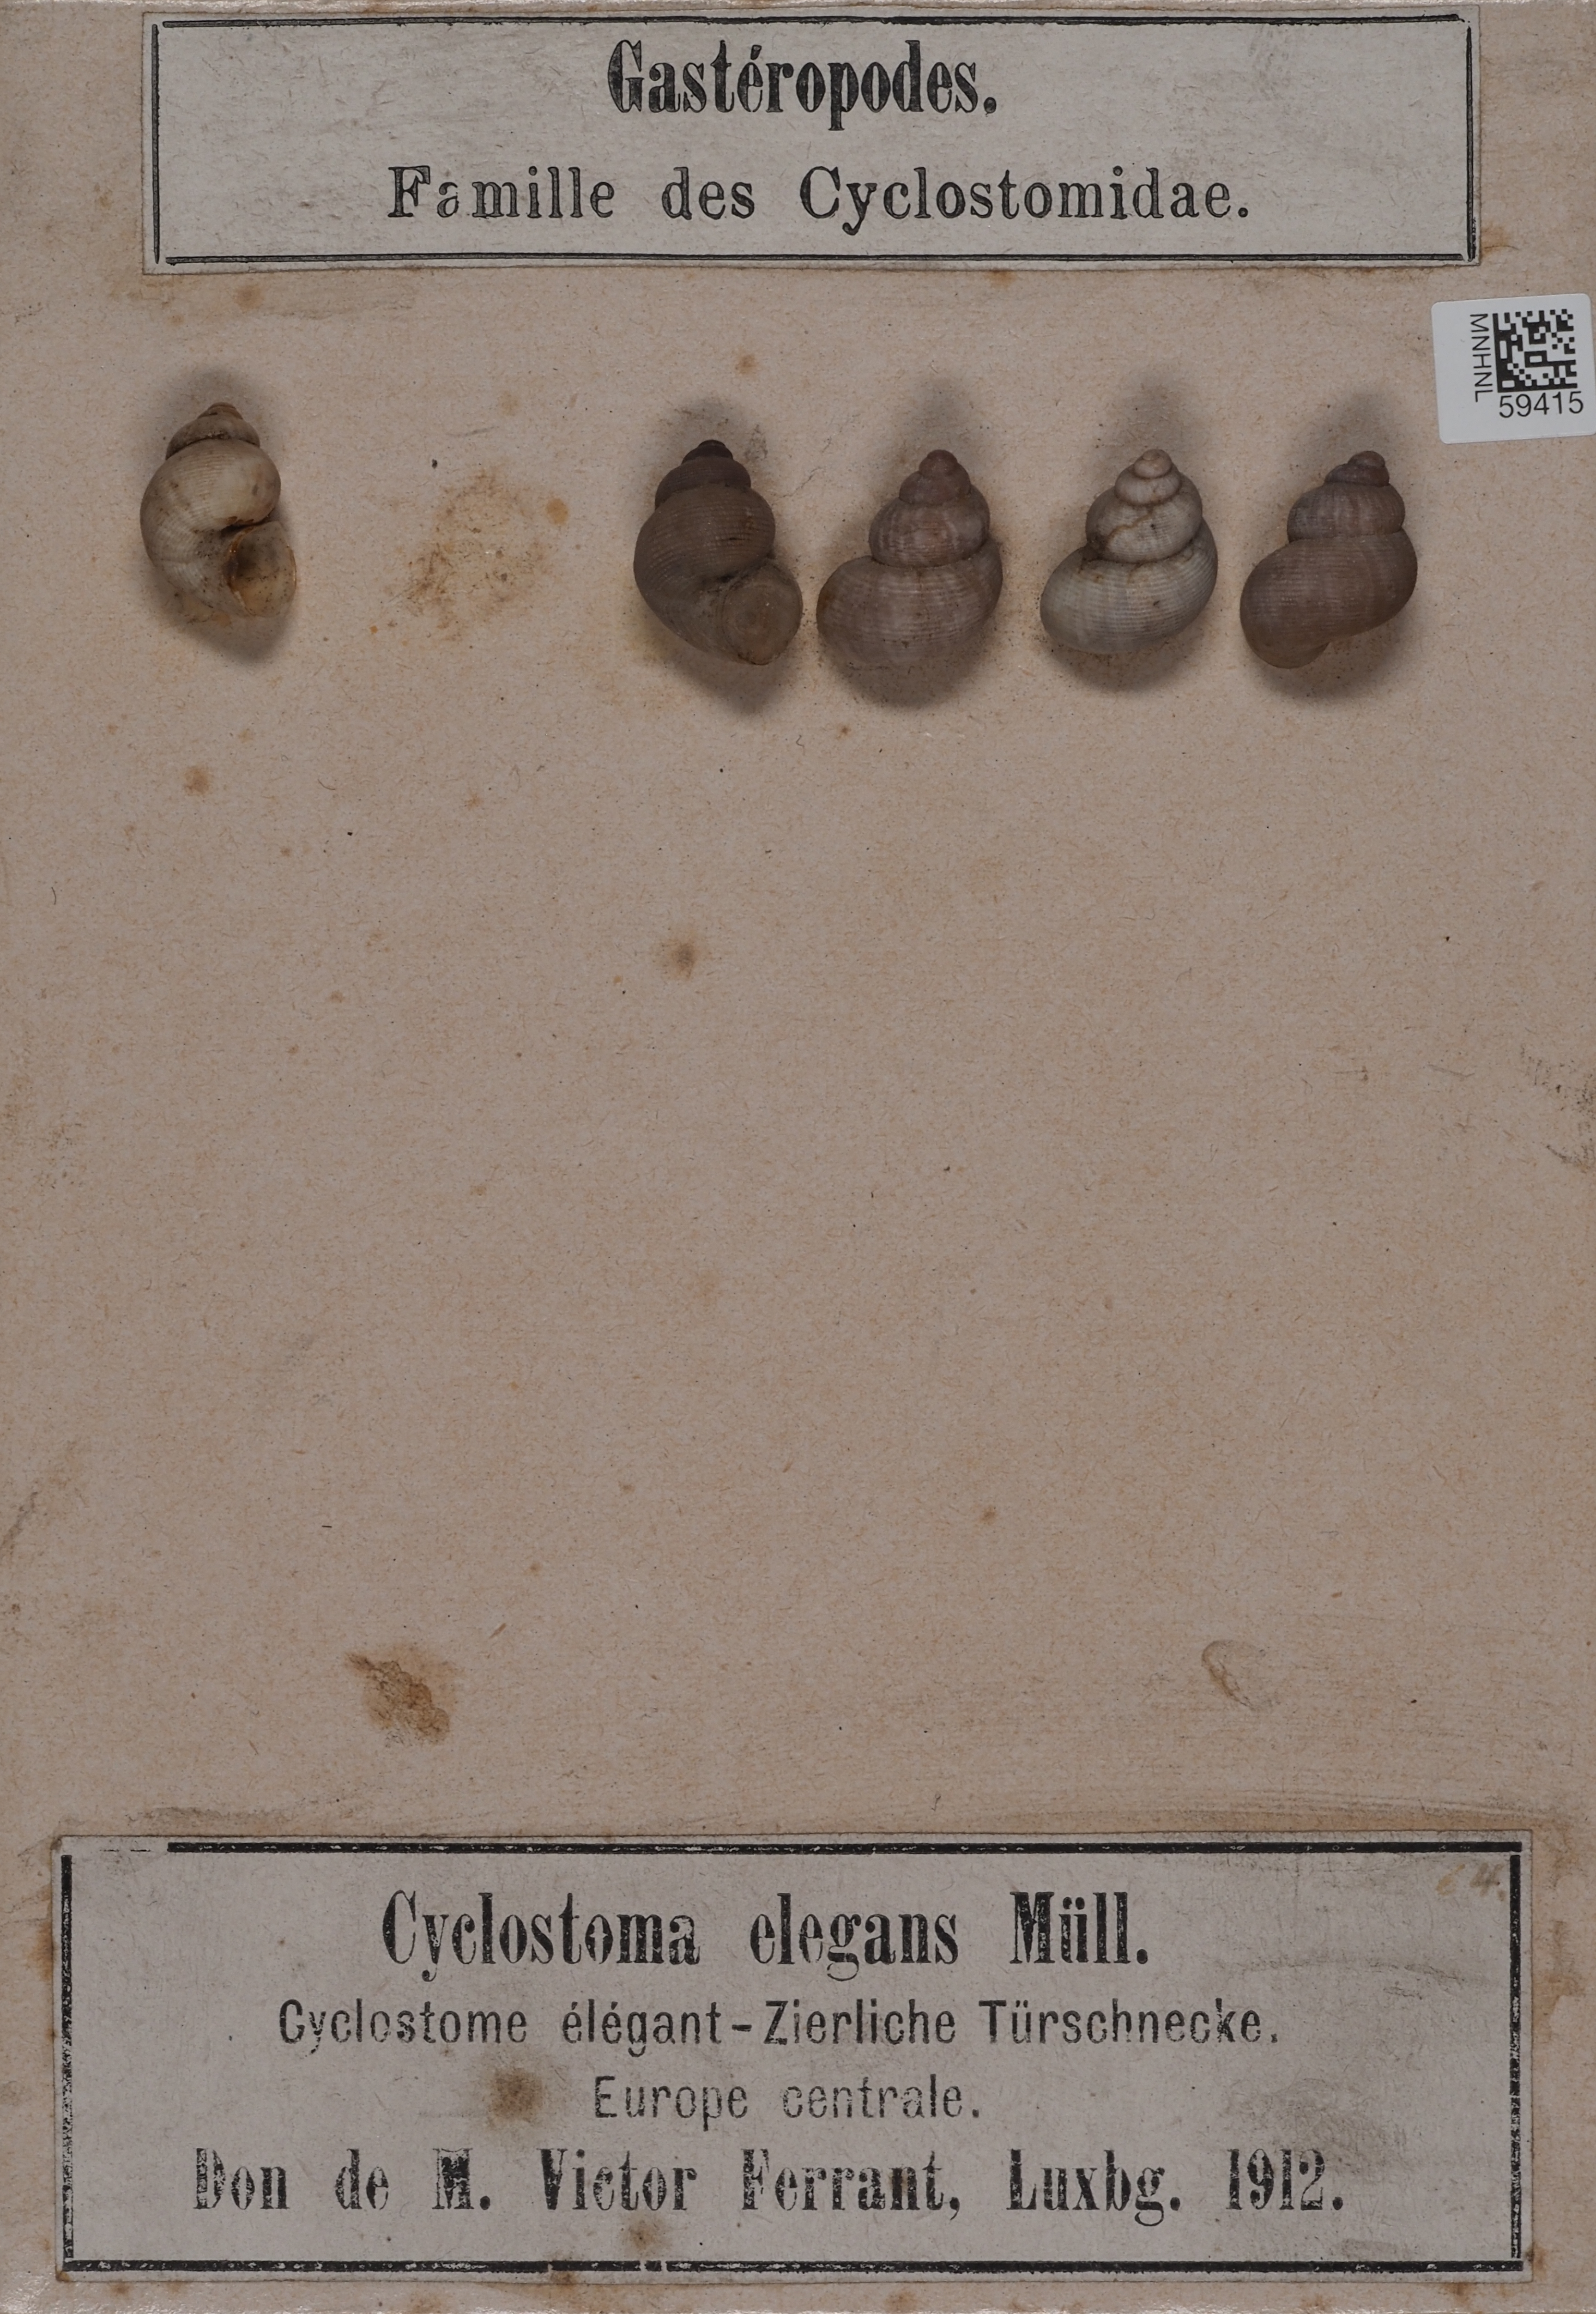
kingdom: Animalia
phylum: Mollusca
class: Gastropoda
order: Littorinimorpha
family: Pomatiidae
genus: Pomatias
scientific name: Pomatias elegans
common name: Red-mouthed snail
